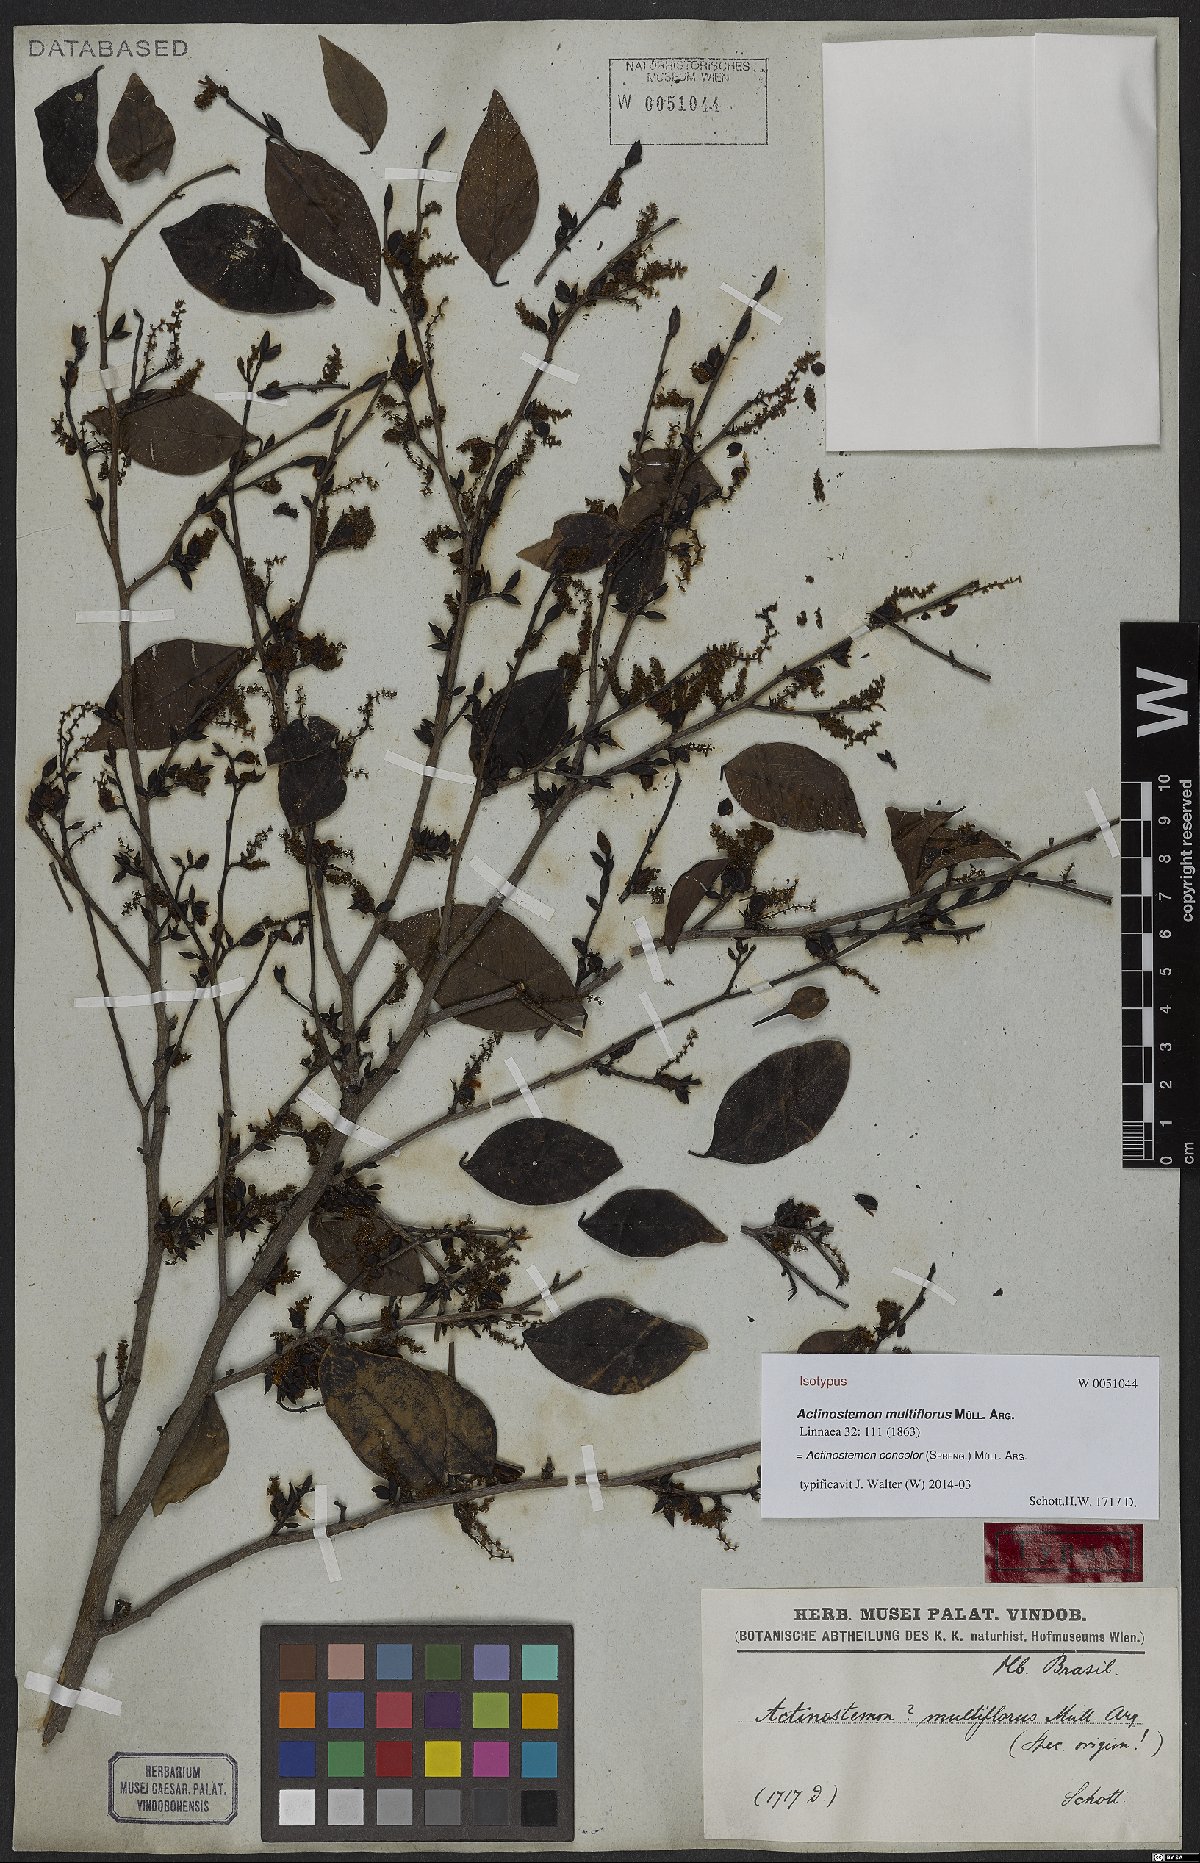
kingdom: Plantae
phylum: Tracheophyta
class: Magnoliopsida
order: Malpighiales
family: Euphorbiaceae
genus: Actinostemon
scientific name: Actinostemon concolor
